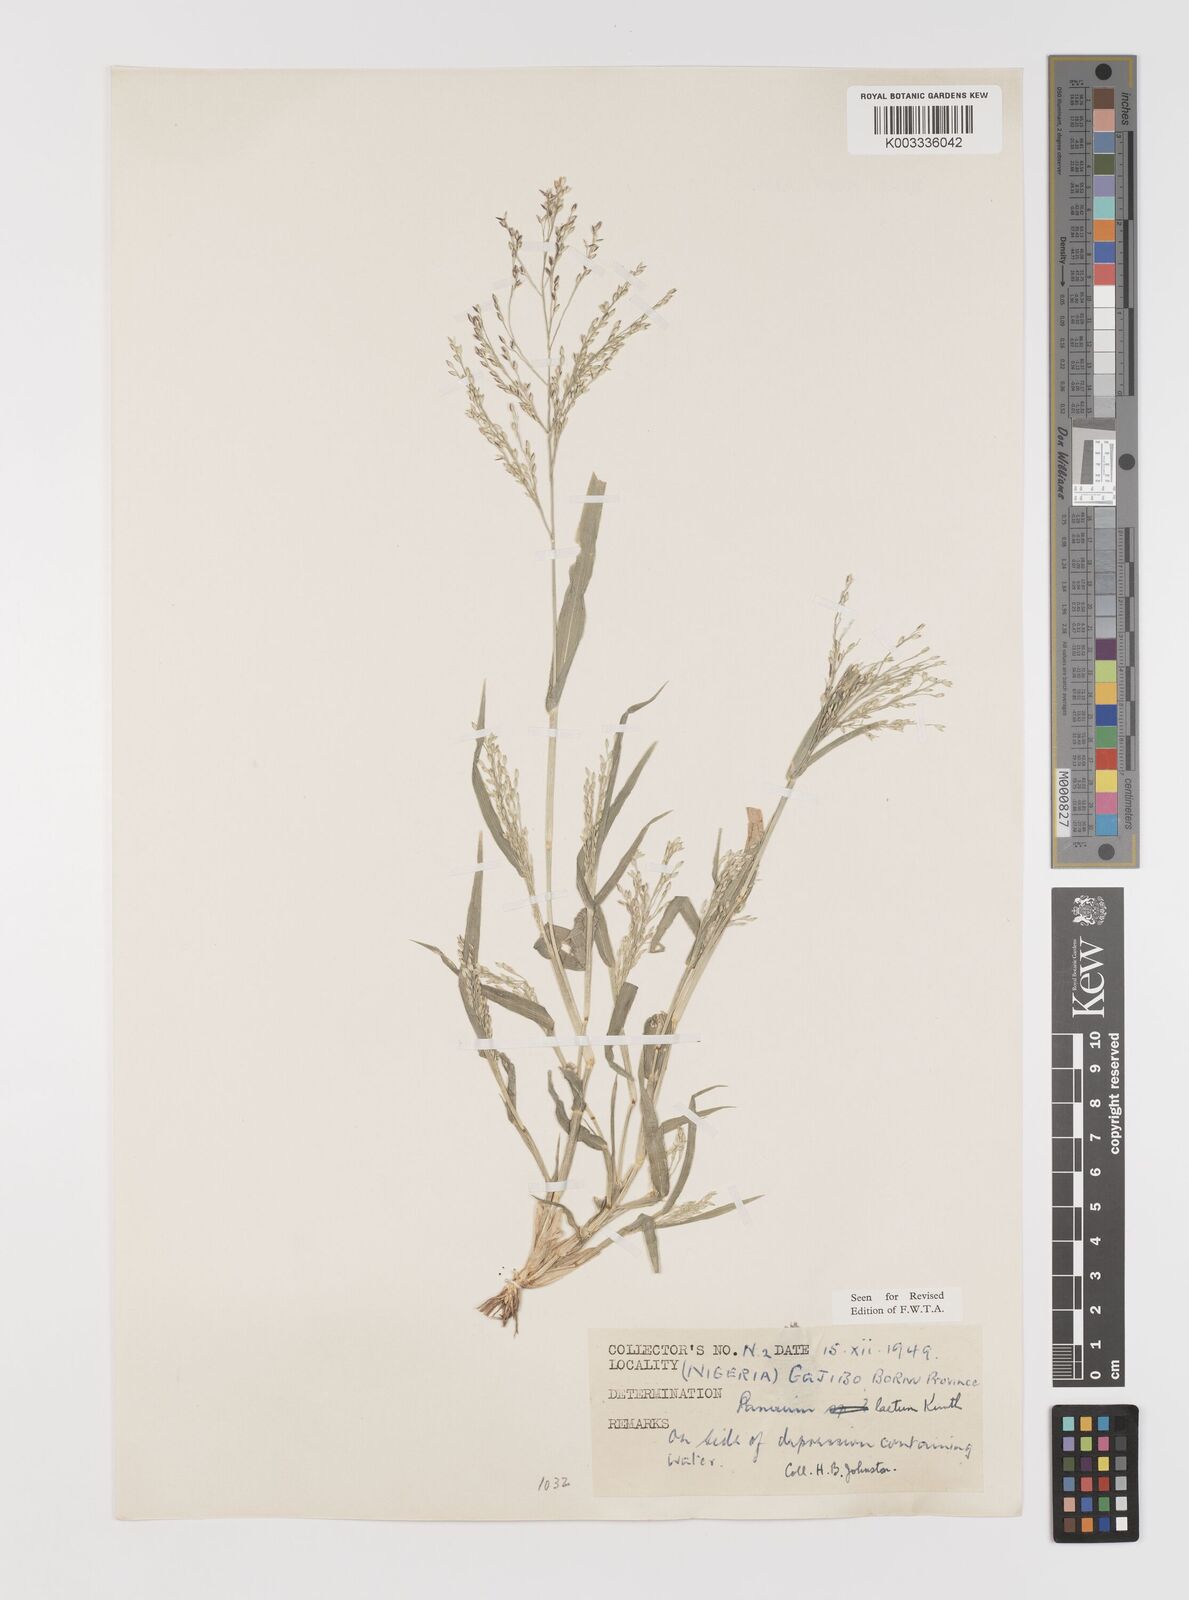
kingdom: Plantae
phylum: Tracheophyta
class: Liliopsida
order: Poales
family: Poaceae
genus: Panicum
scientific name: Panicum laetum
